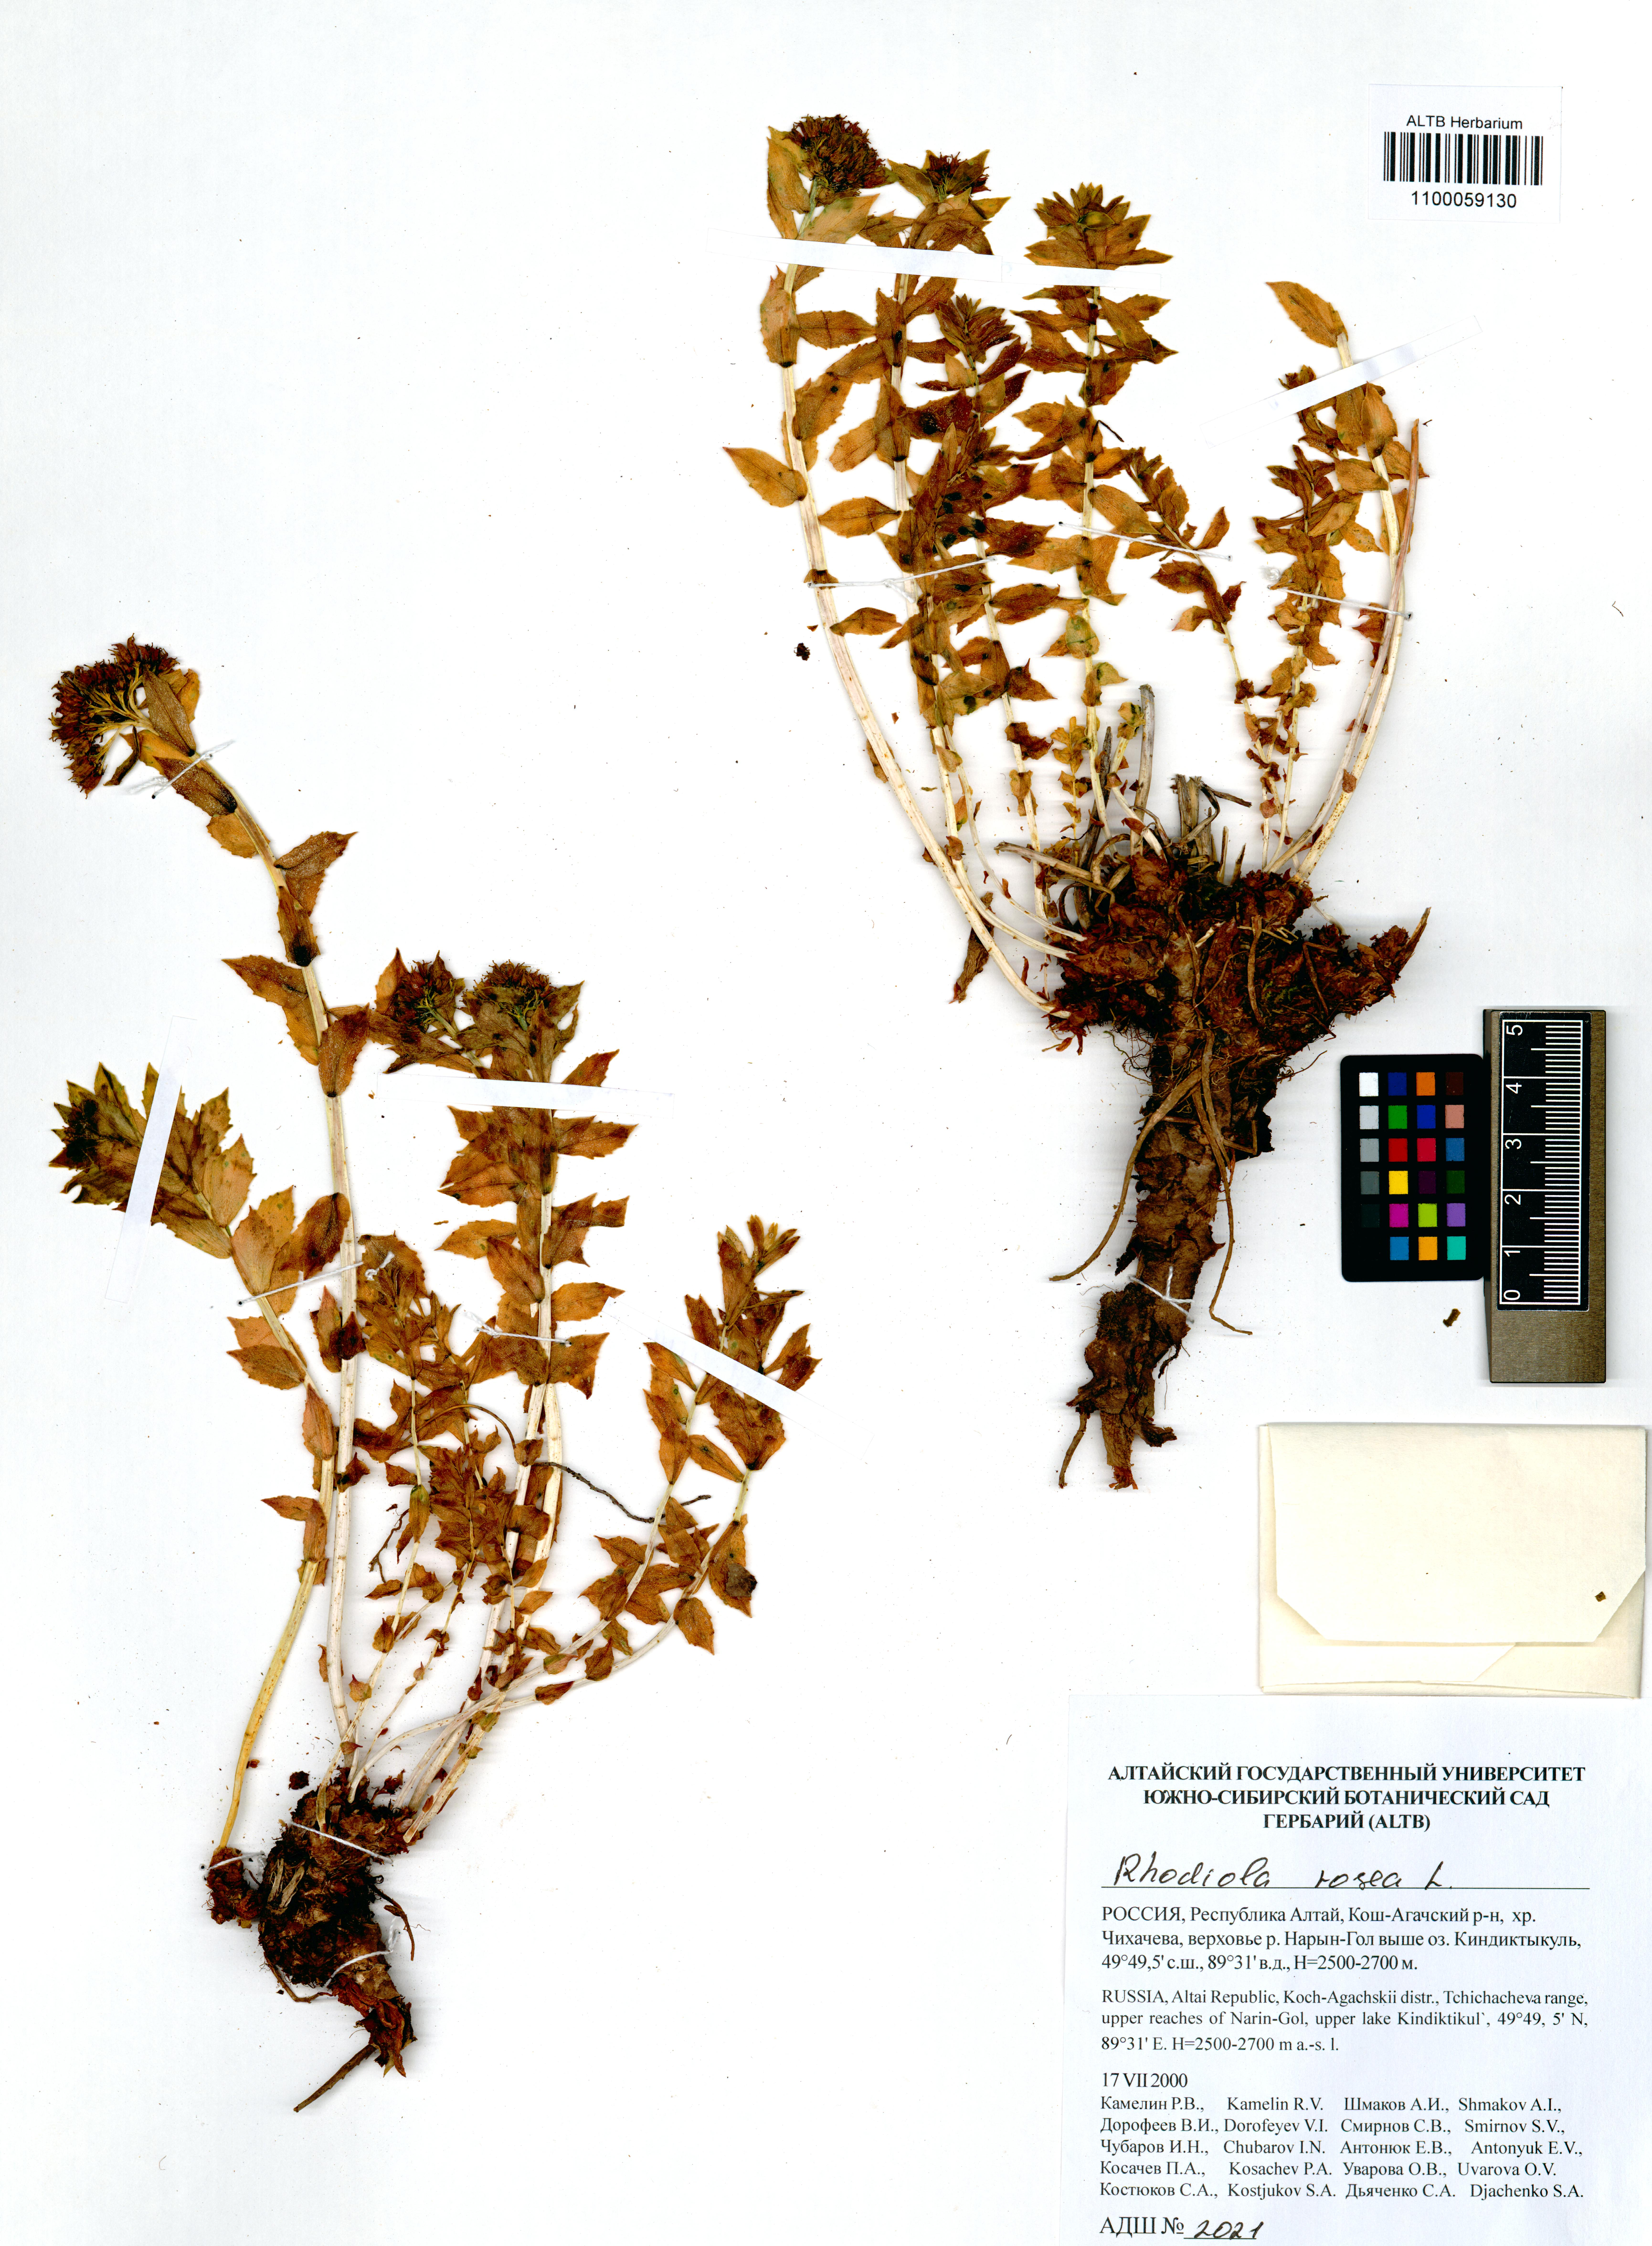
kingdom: Plantae
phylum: Tracheophyta
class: Magnoliopsida
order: Saxifragales
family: Crassulaceae
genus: Rhodiola
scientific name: Rhodiola rosea
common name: Roseroot
